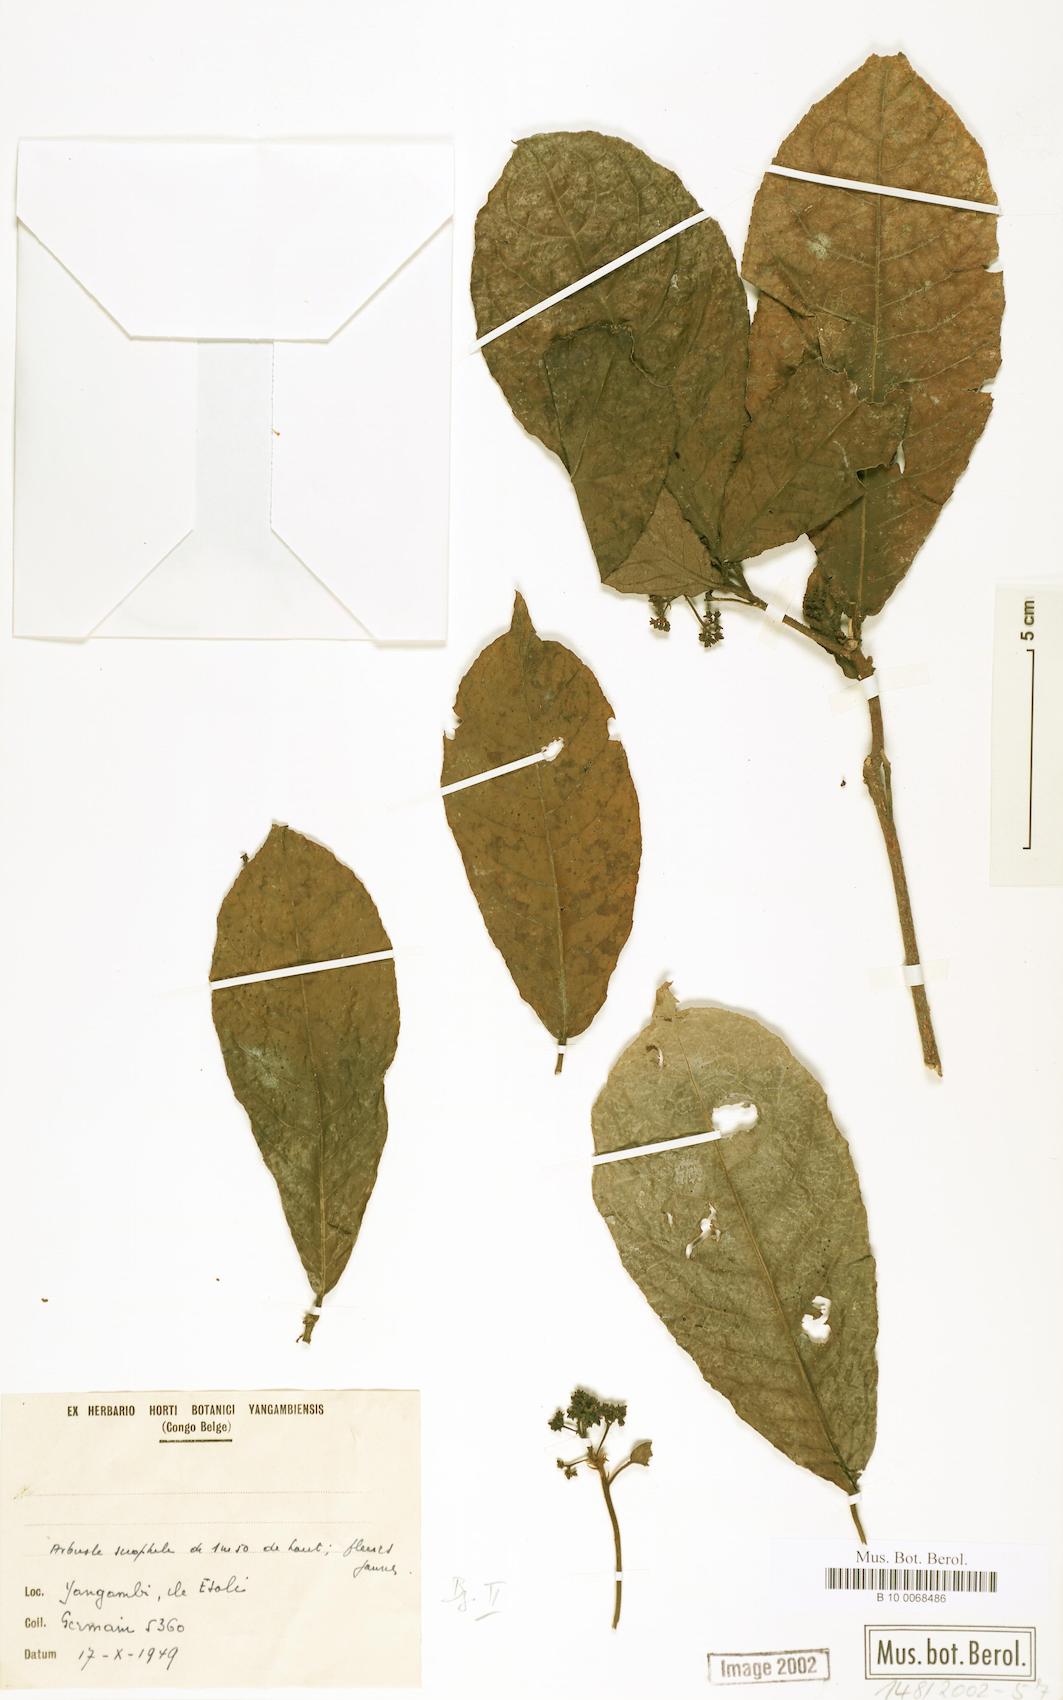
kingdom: Plantae
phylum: Tracheophyta
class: Magnoliopsida
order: Malpighiales
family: Violaceae
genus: Rinorea
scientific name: Rinorea
